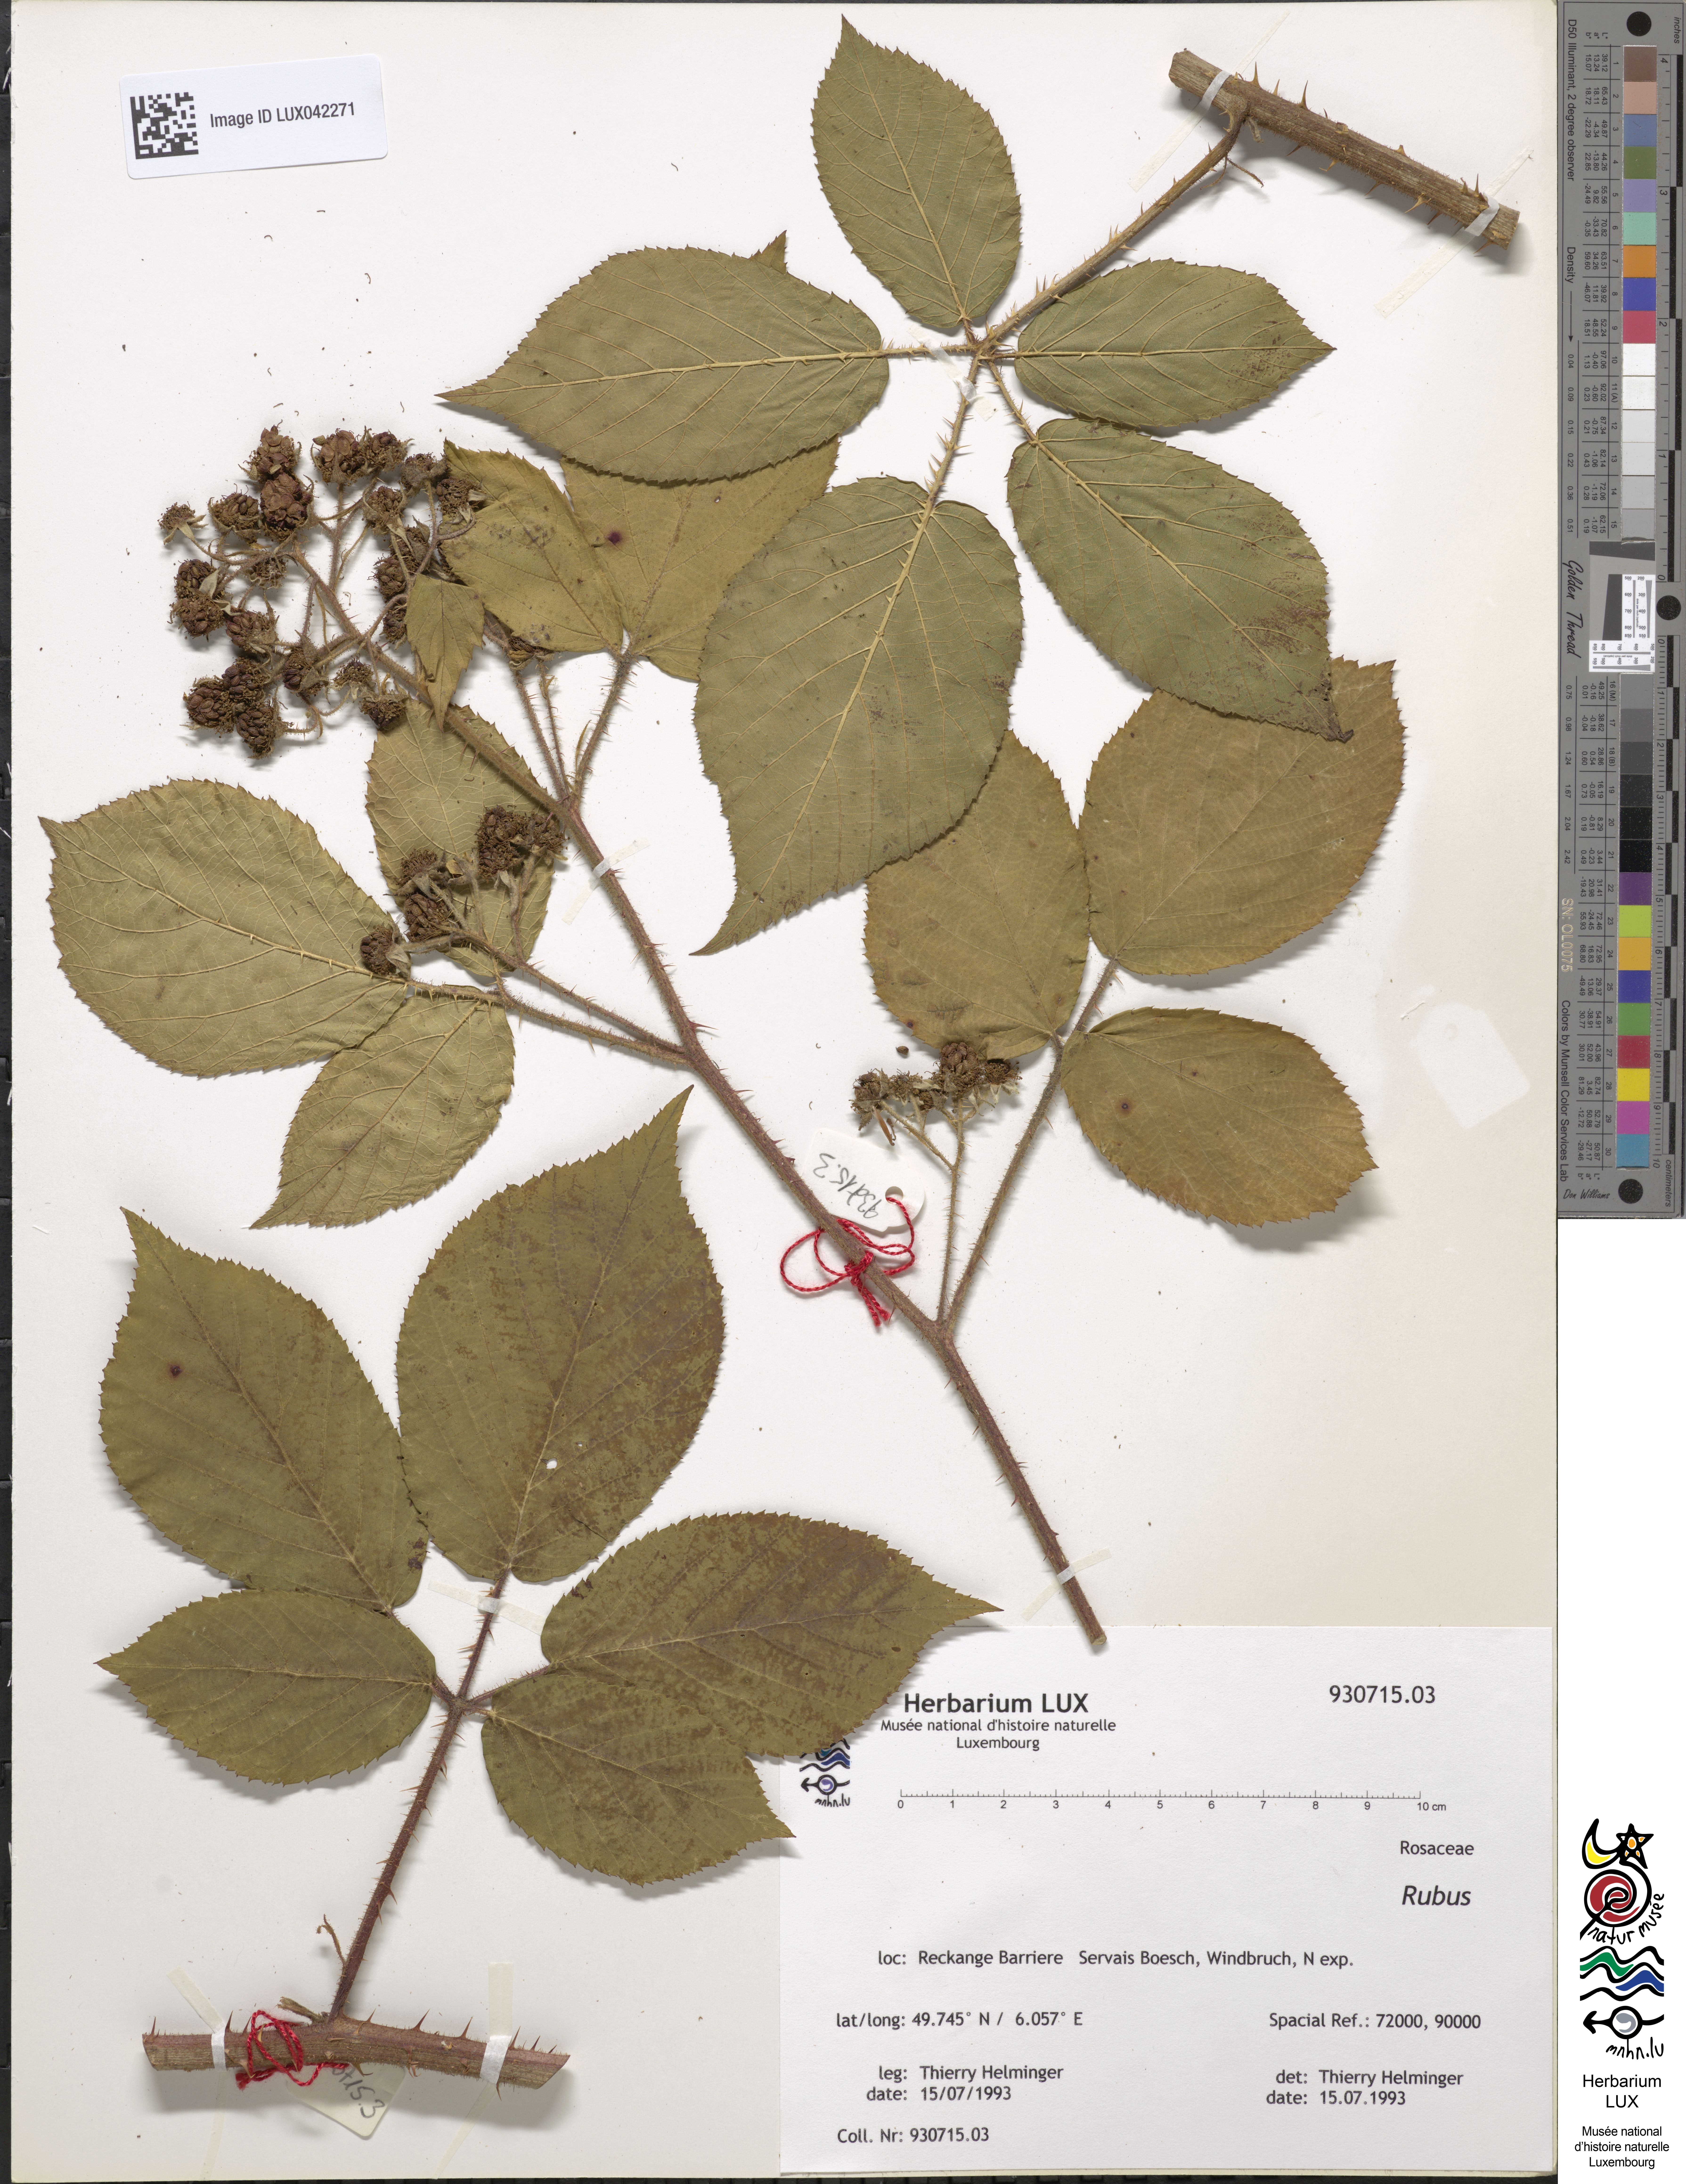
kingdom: Plantae
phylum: Tracheophyta
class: Magnoliopsida
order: Rosales
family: Rosaceae
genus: Rubus
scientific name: Rubus
